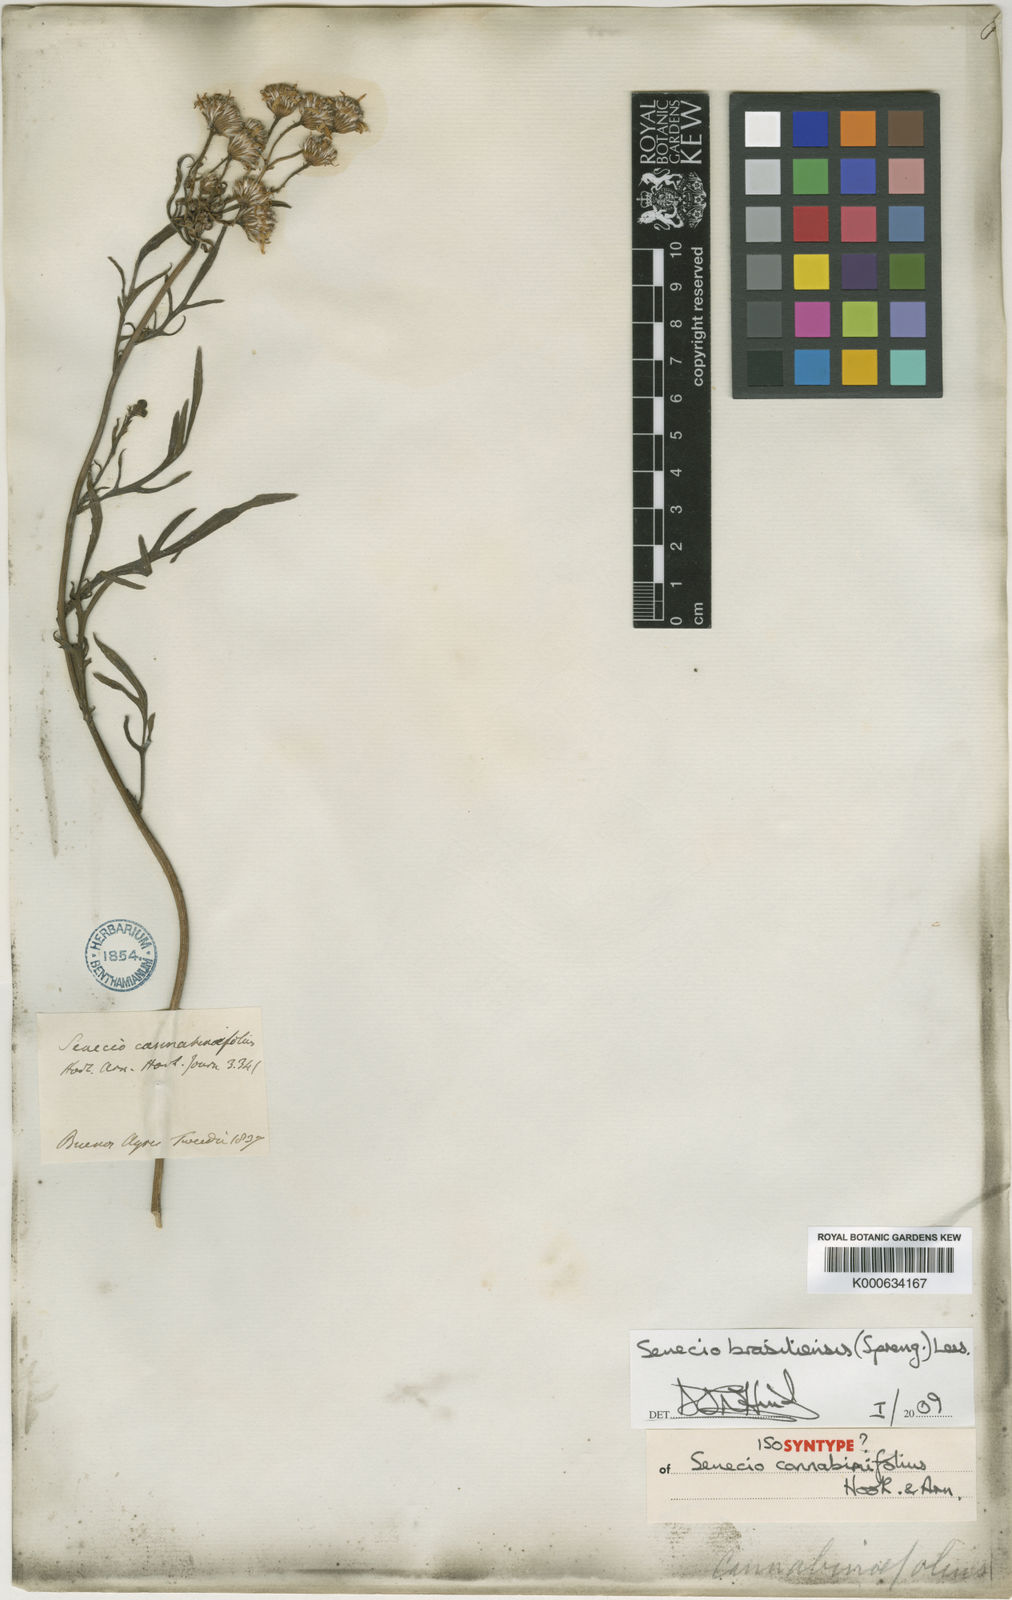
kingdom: Plantae
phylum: Tracheophyta
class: Magnoliopsida
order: Asterales
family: Asteraceae
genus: Senecio
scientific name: Senecio brasiliensis
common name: Hemp-leaf ragwort
